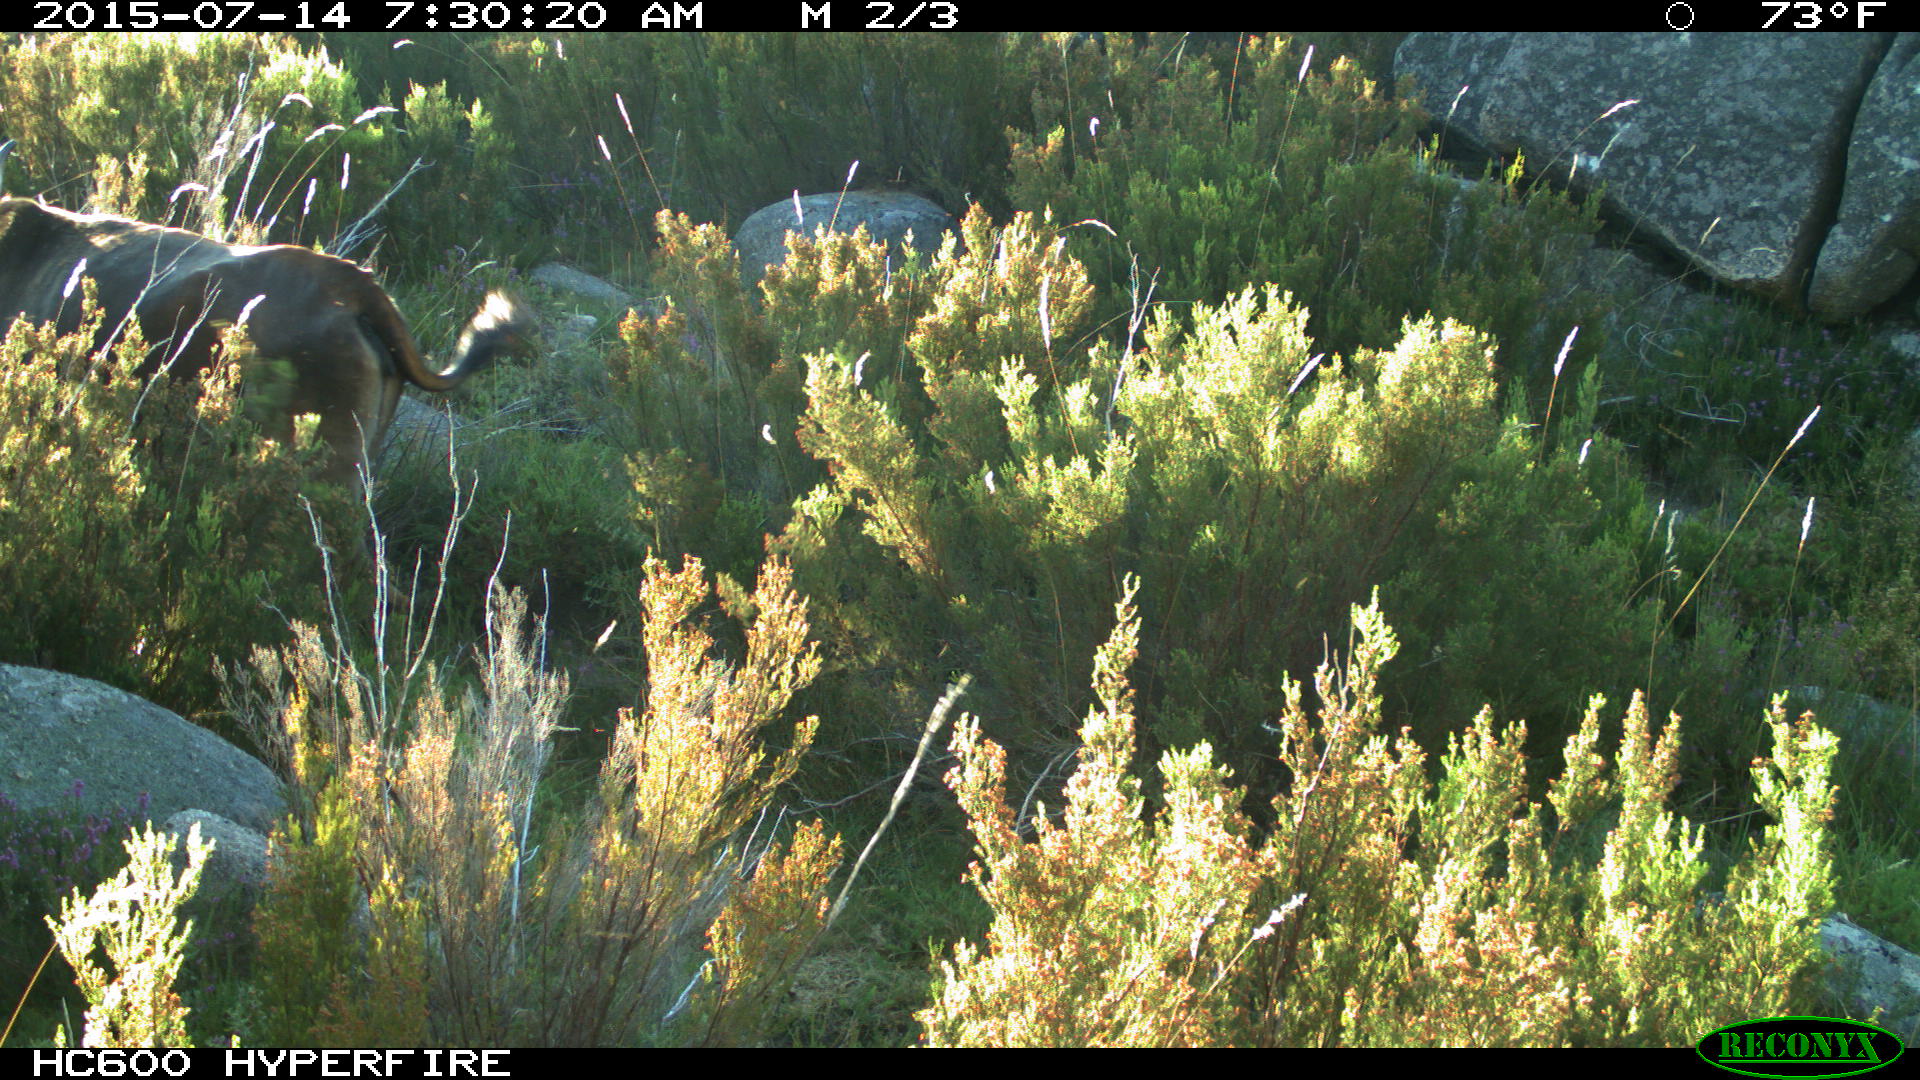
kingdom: Animalia
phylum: Chordata
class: Mammalia
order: Artiodactyla
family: Bovidae
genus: Bos
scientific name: Bos taurus
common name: Domesticated cattle
